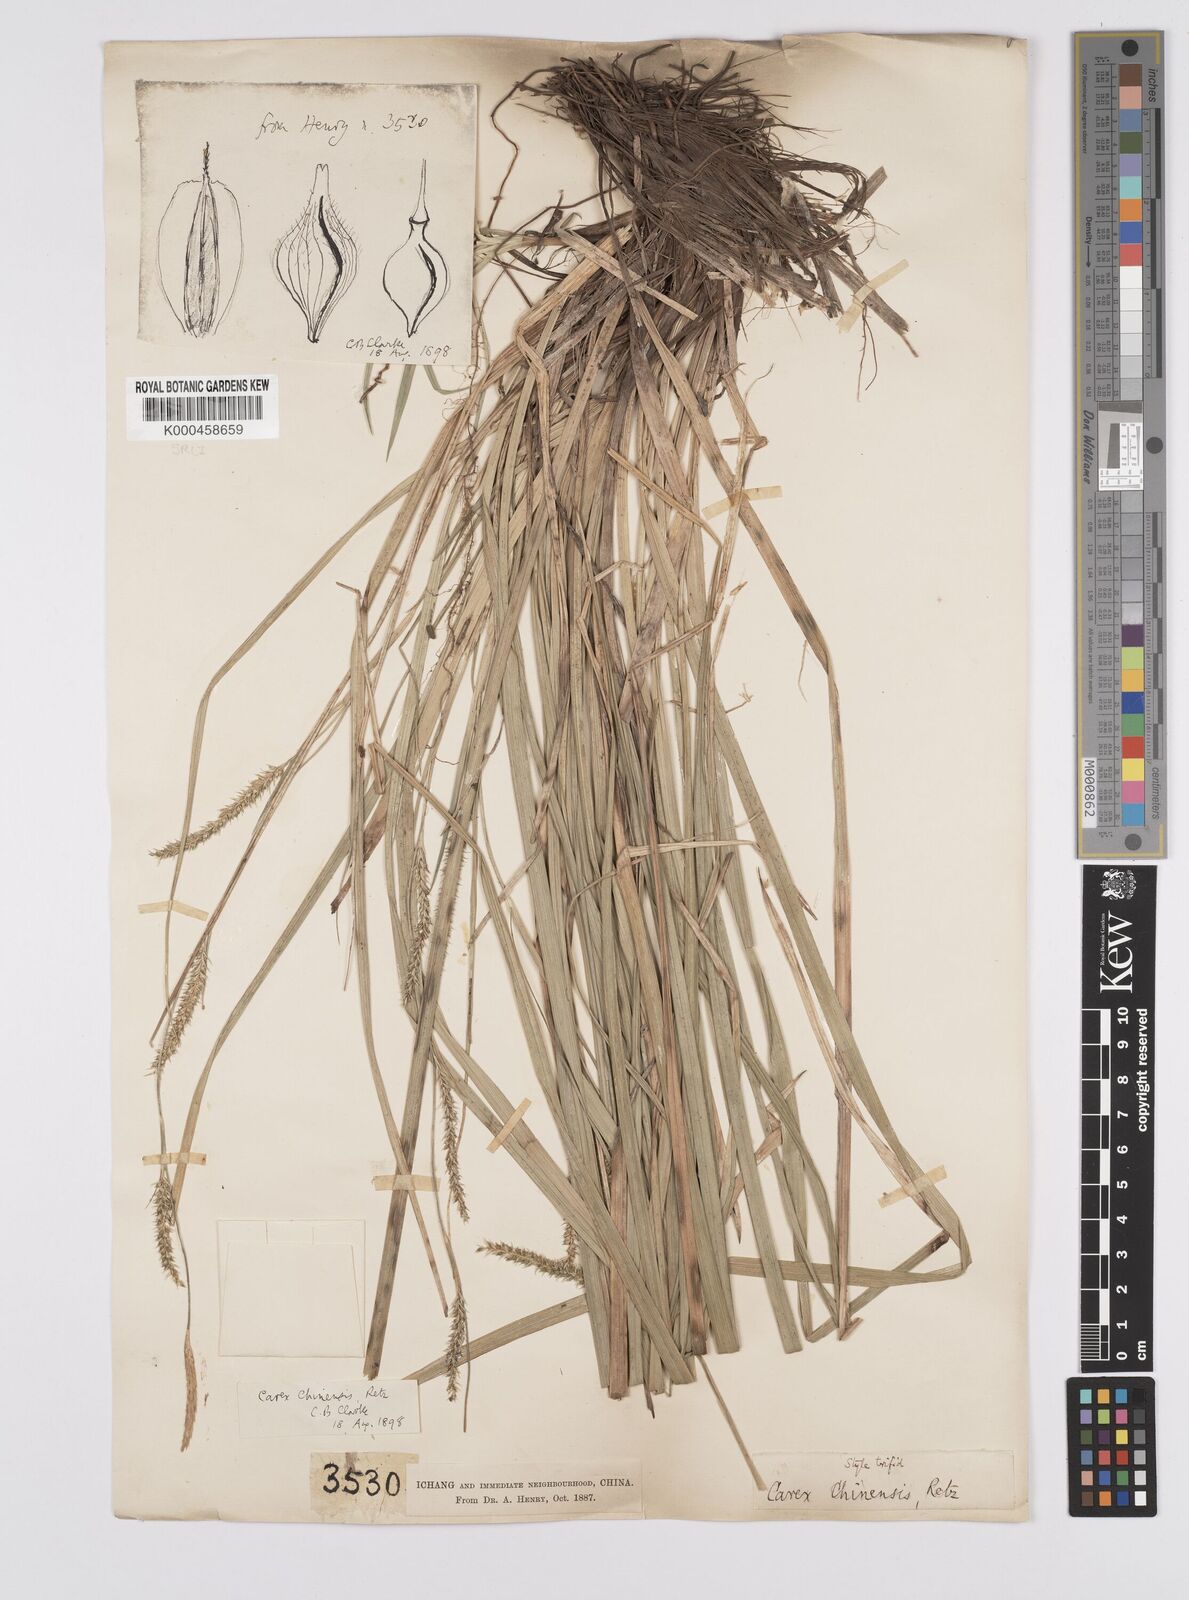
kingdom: Plantae
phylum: Tracheophyta
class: Liliopsida
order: Poales
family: Cyperaceae
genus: Carex
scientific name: Carex chinensis
